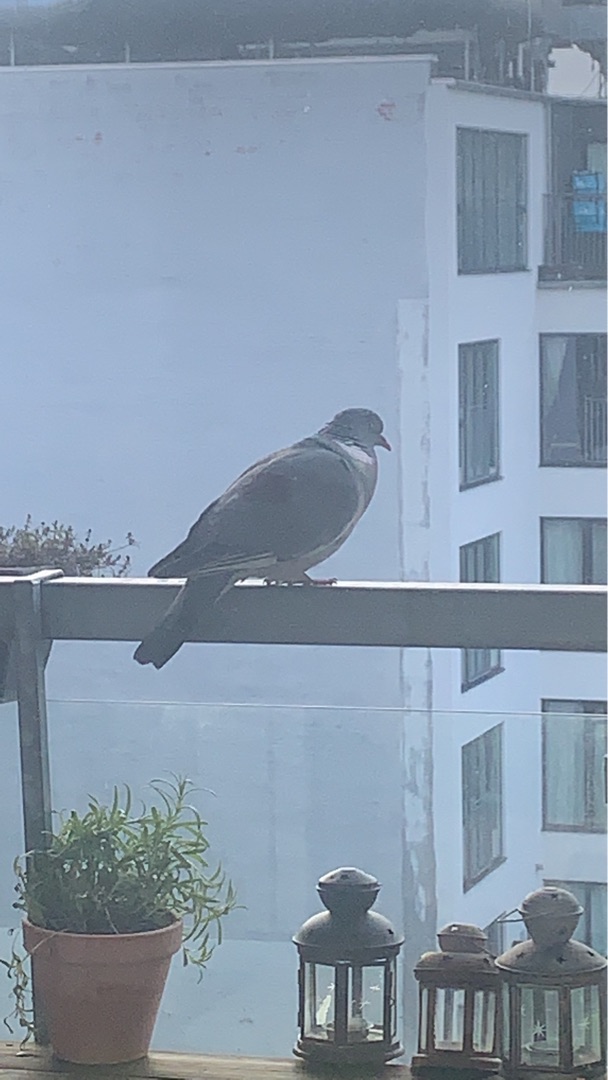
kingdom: Animalia
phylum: Chordata
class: Aves
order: Columbiformes
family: Columbidae
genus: Columba
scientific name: Columba palumbus
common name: Ringdue
